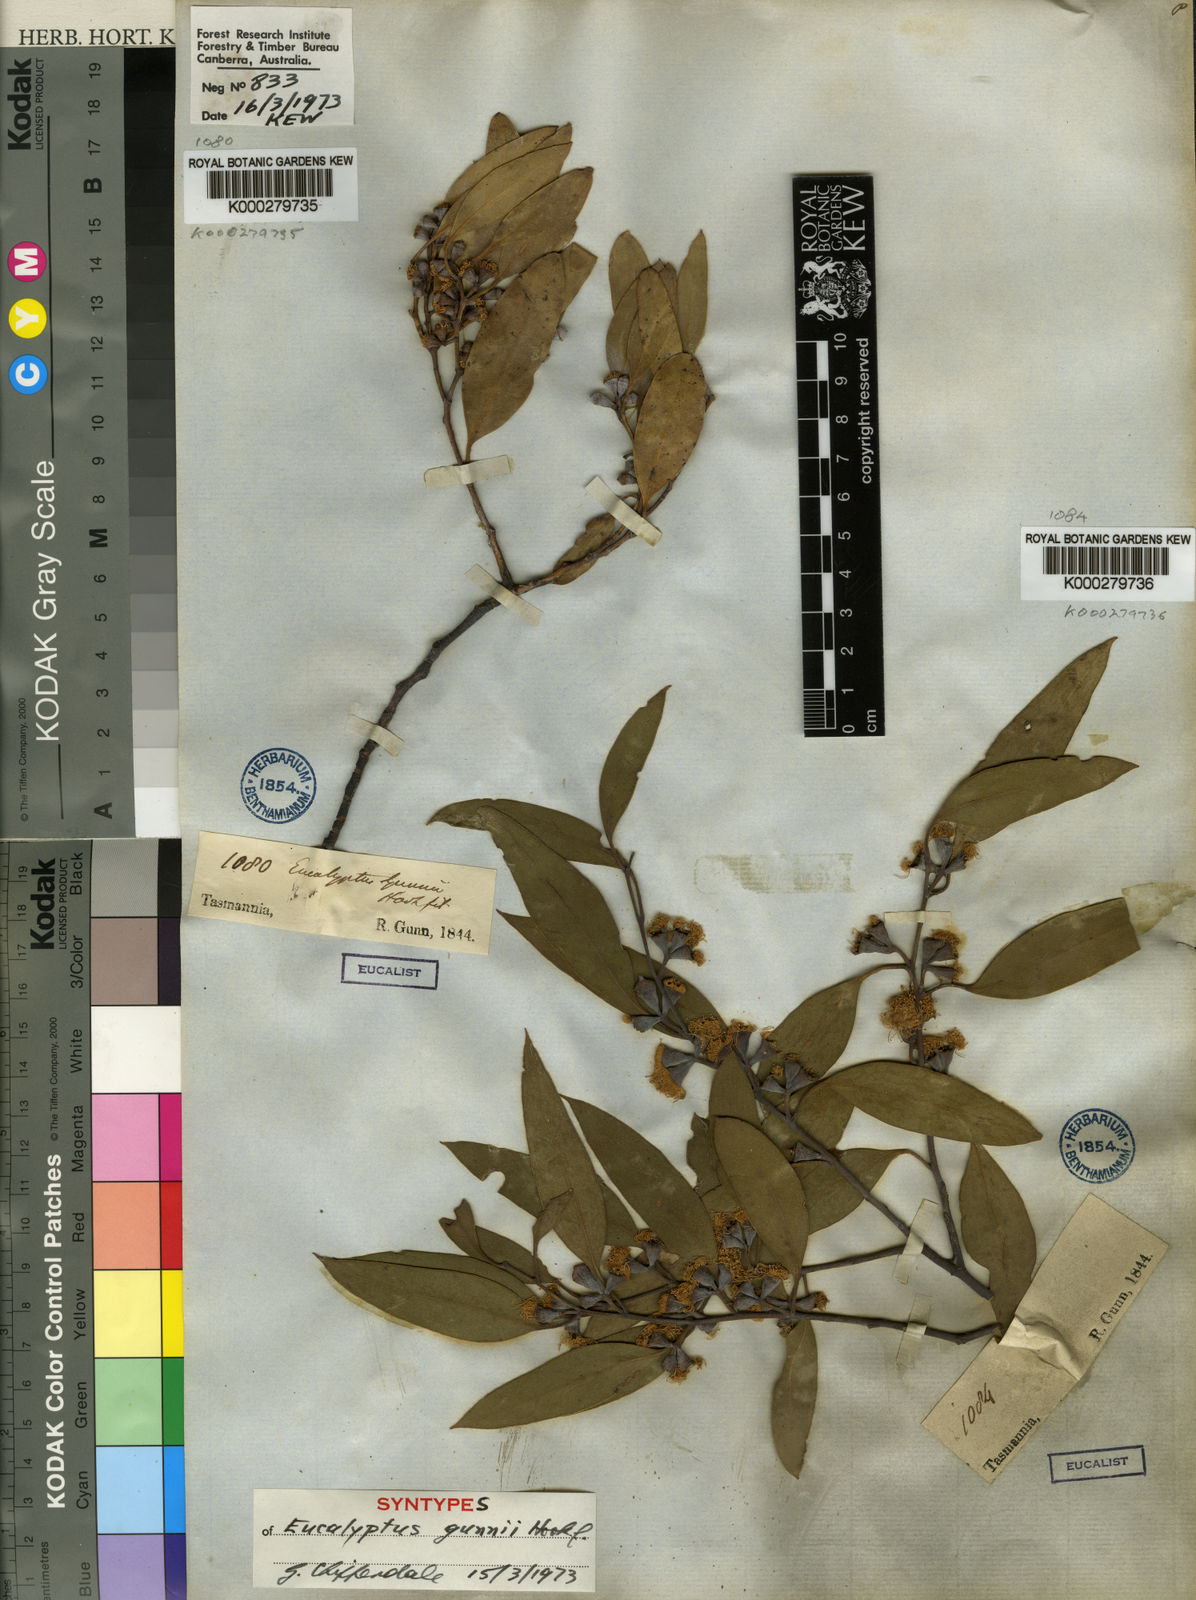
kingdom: Plantae
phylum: Tracheophyta
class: Magnoliopsida
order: Myrtales
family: Myrtaceae
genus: Eucalyptus
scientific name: Eucalyptus gunnii
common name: Cider gum
